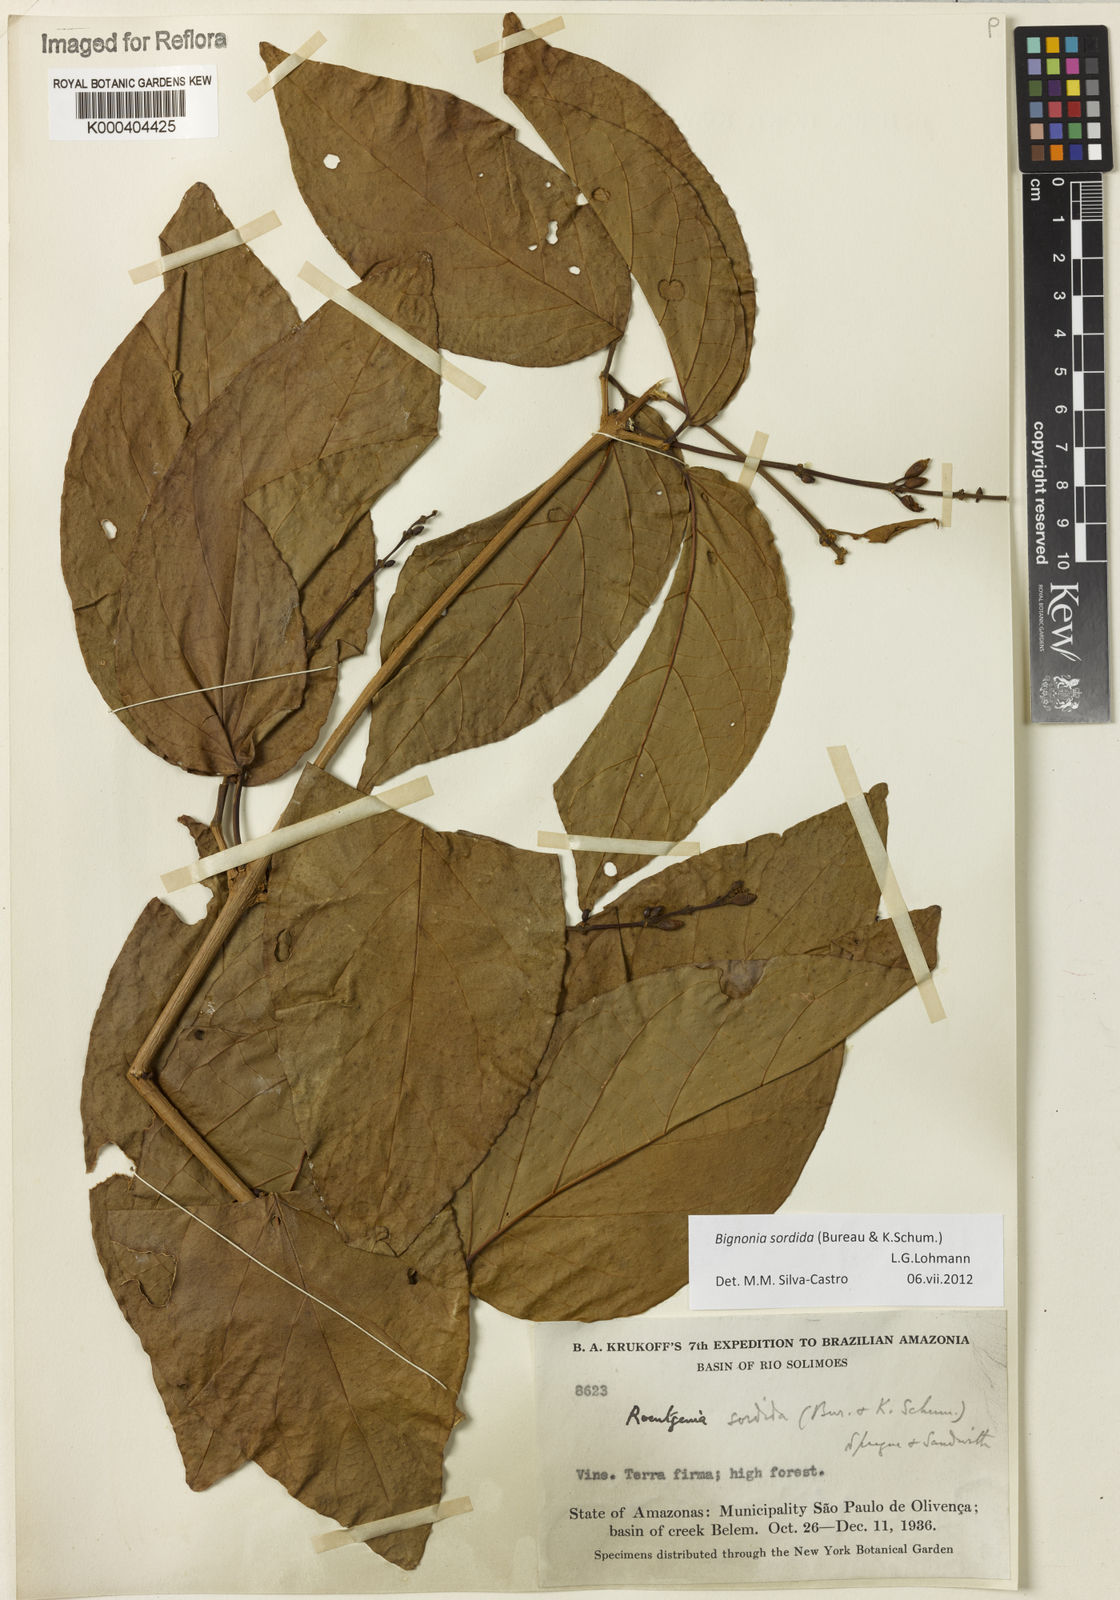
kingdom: Plantae
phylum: Tracheophyta
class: Magnoliopsida
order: Lamiales
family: Bignoniaceae
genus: Bignonia
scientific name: Bignonia sordida
